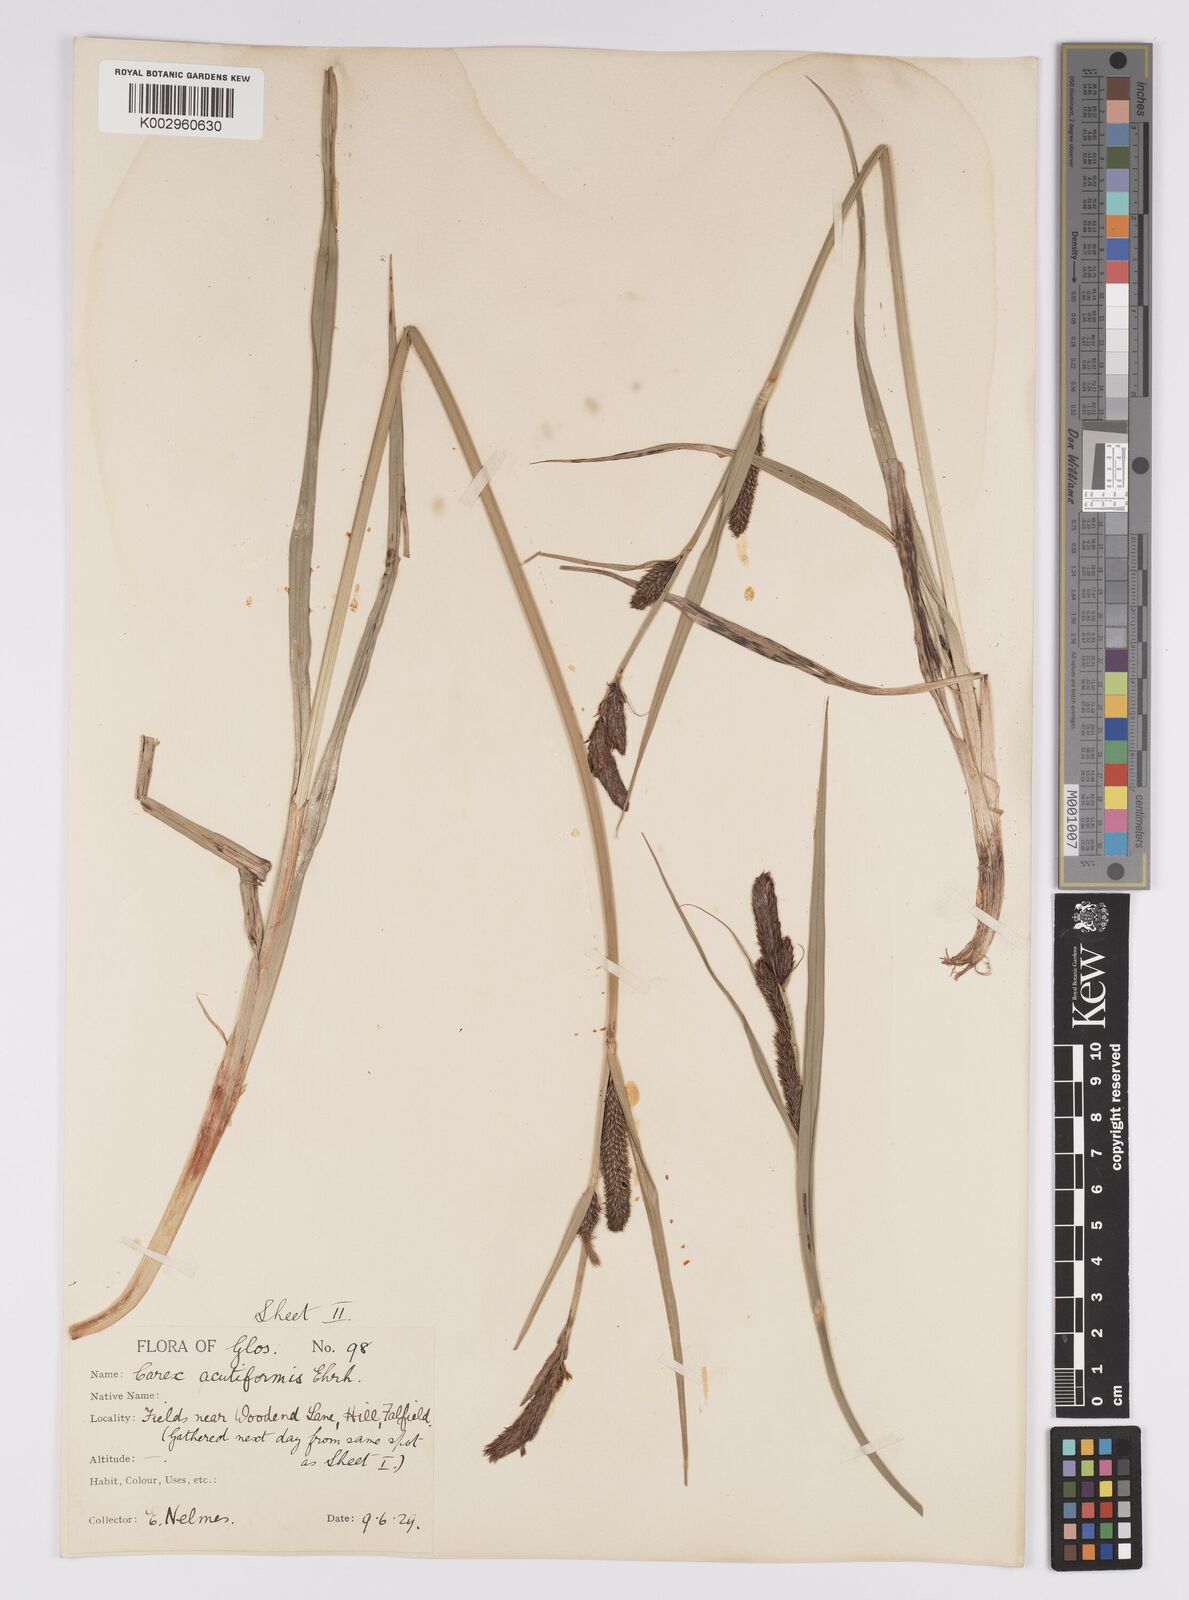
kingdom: Plantae
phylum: Tracheophyta
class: Liliopsida
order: Poales
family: Cyperaceae
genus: Carex
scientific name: Carex acutiformis
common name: Lesser pond-sedge
